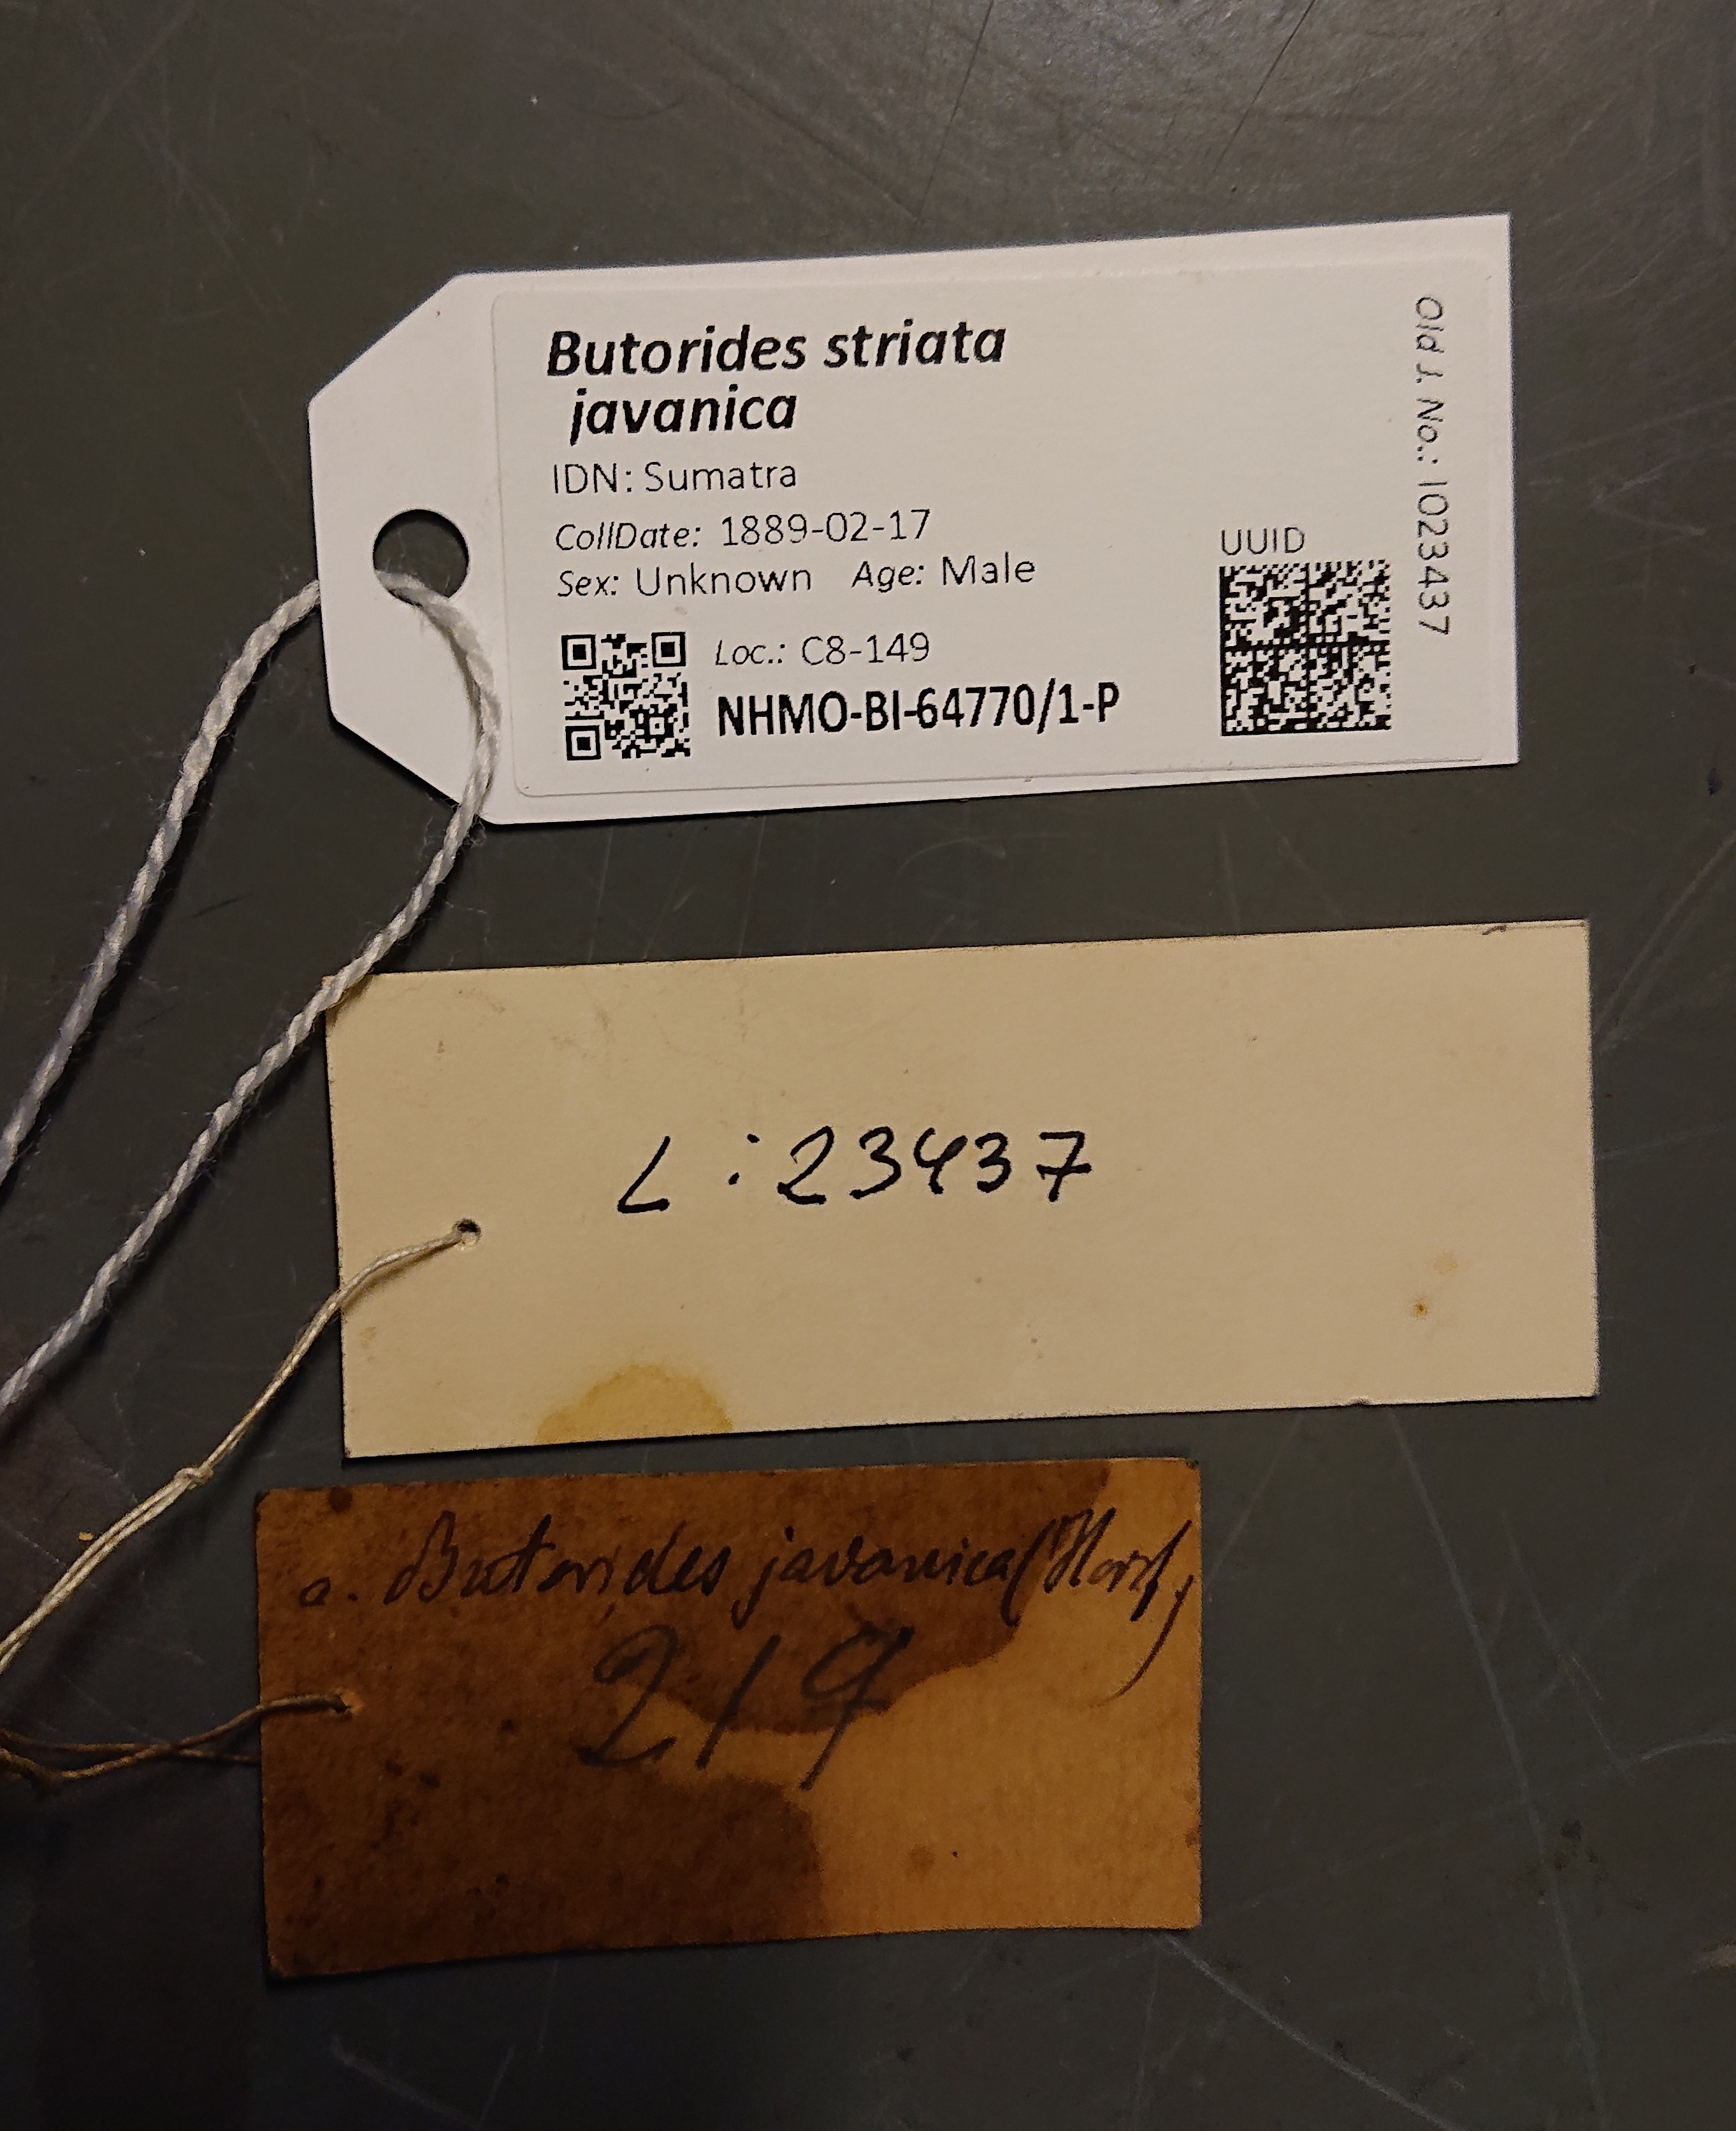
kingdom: Animalia
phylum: Chordata
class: Aves
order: Pelecaniformes
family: Ardeidae
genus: Butorides
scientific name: Butorides striata
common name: Striated heron
